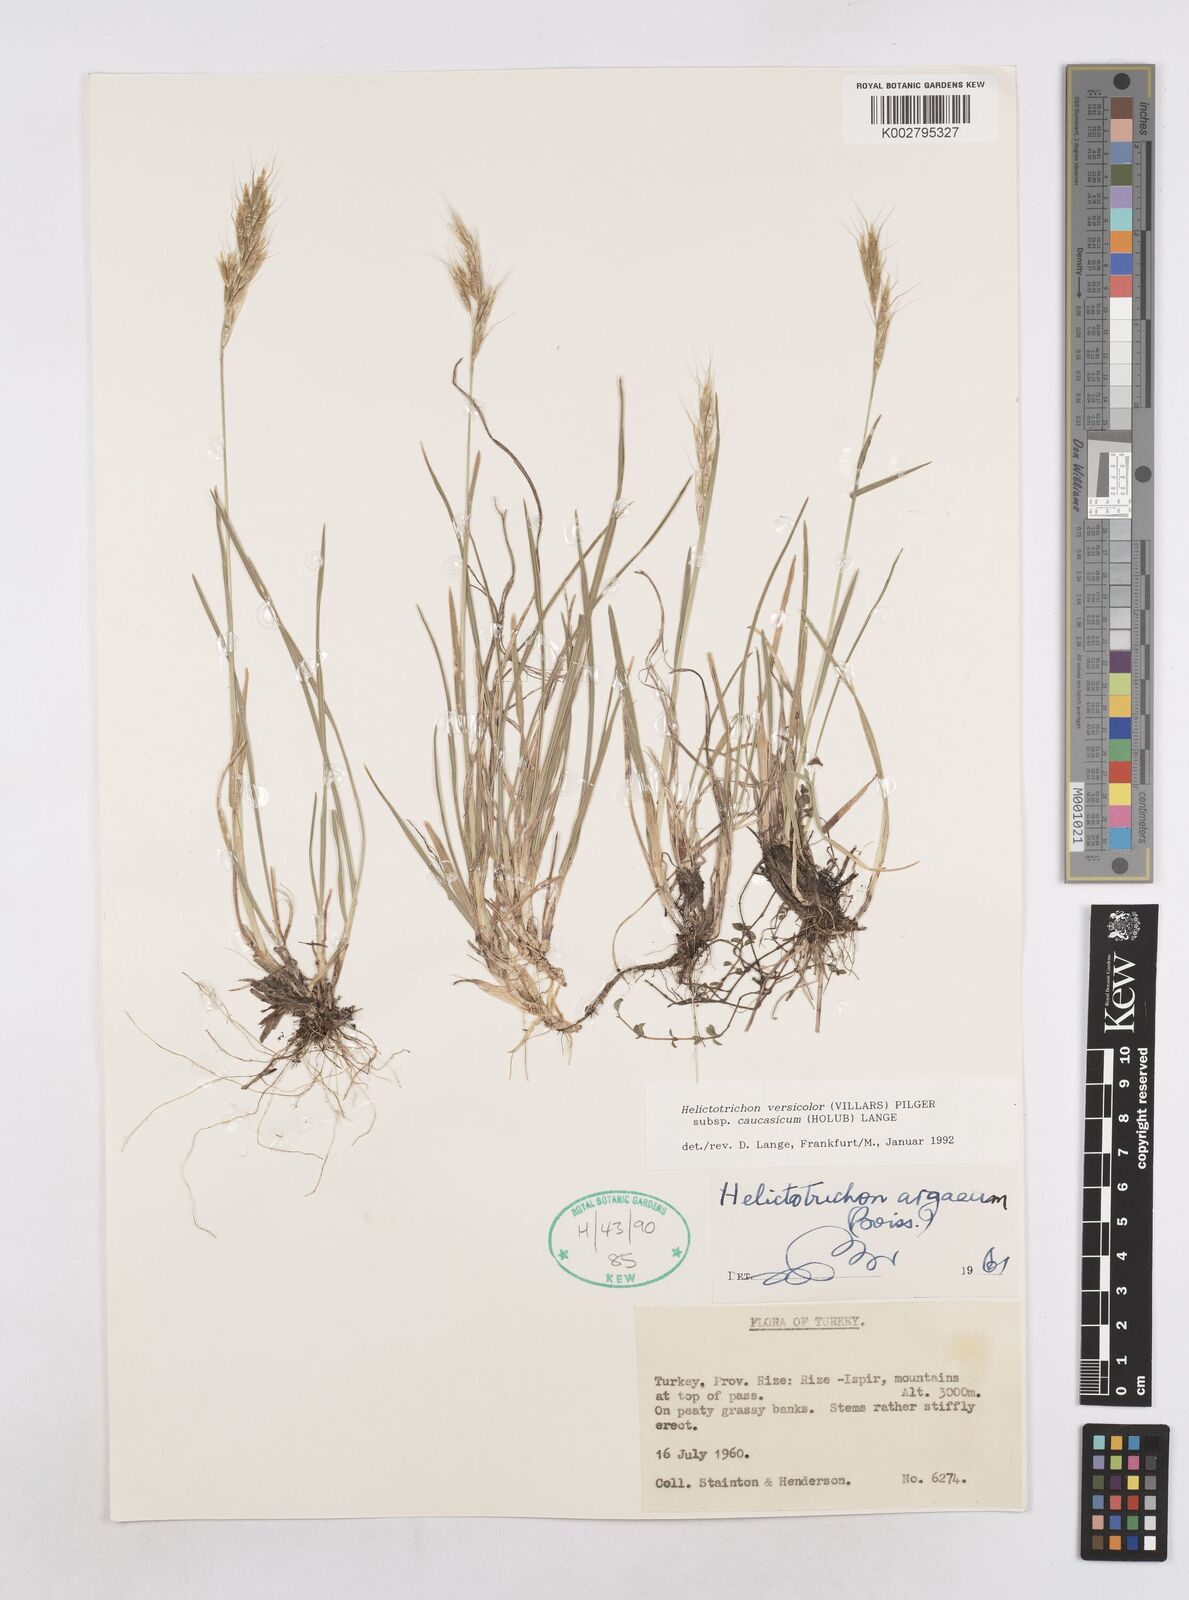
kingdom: Plantae
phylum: Tracheophyta
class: Liliopsida
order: Poales
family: Poaceae
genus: Helictochloa
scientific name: Helictochloa versicolor
